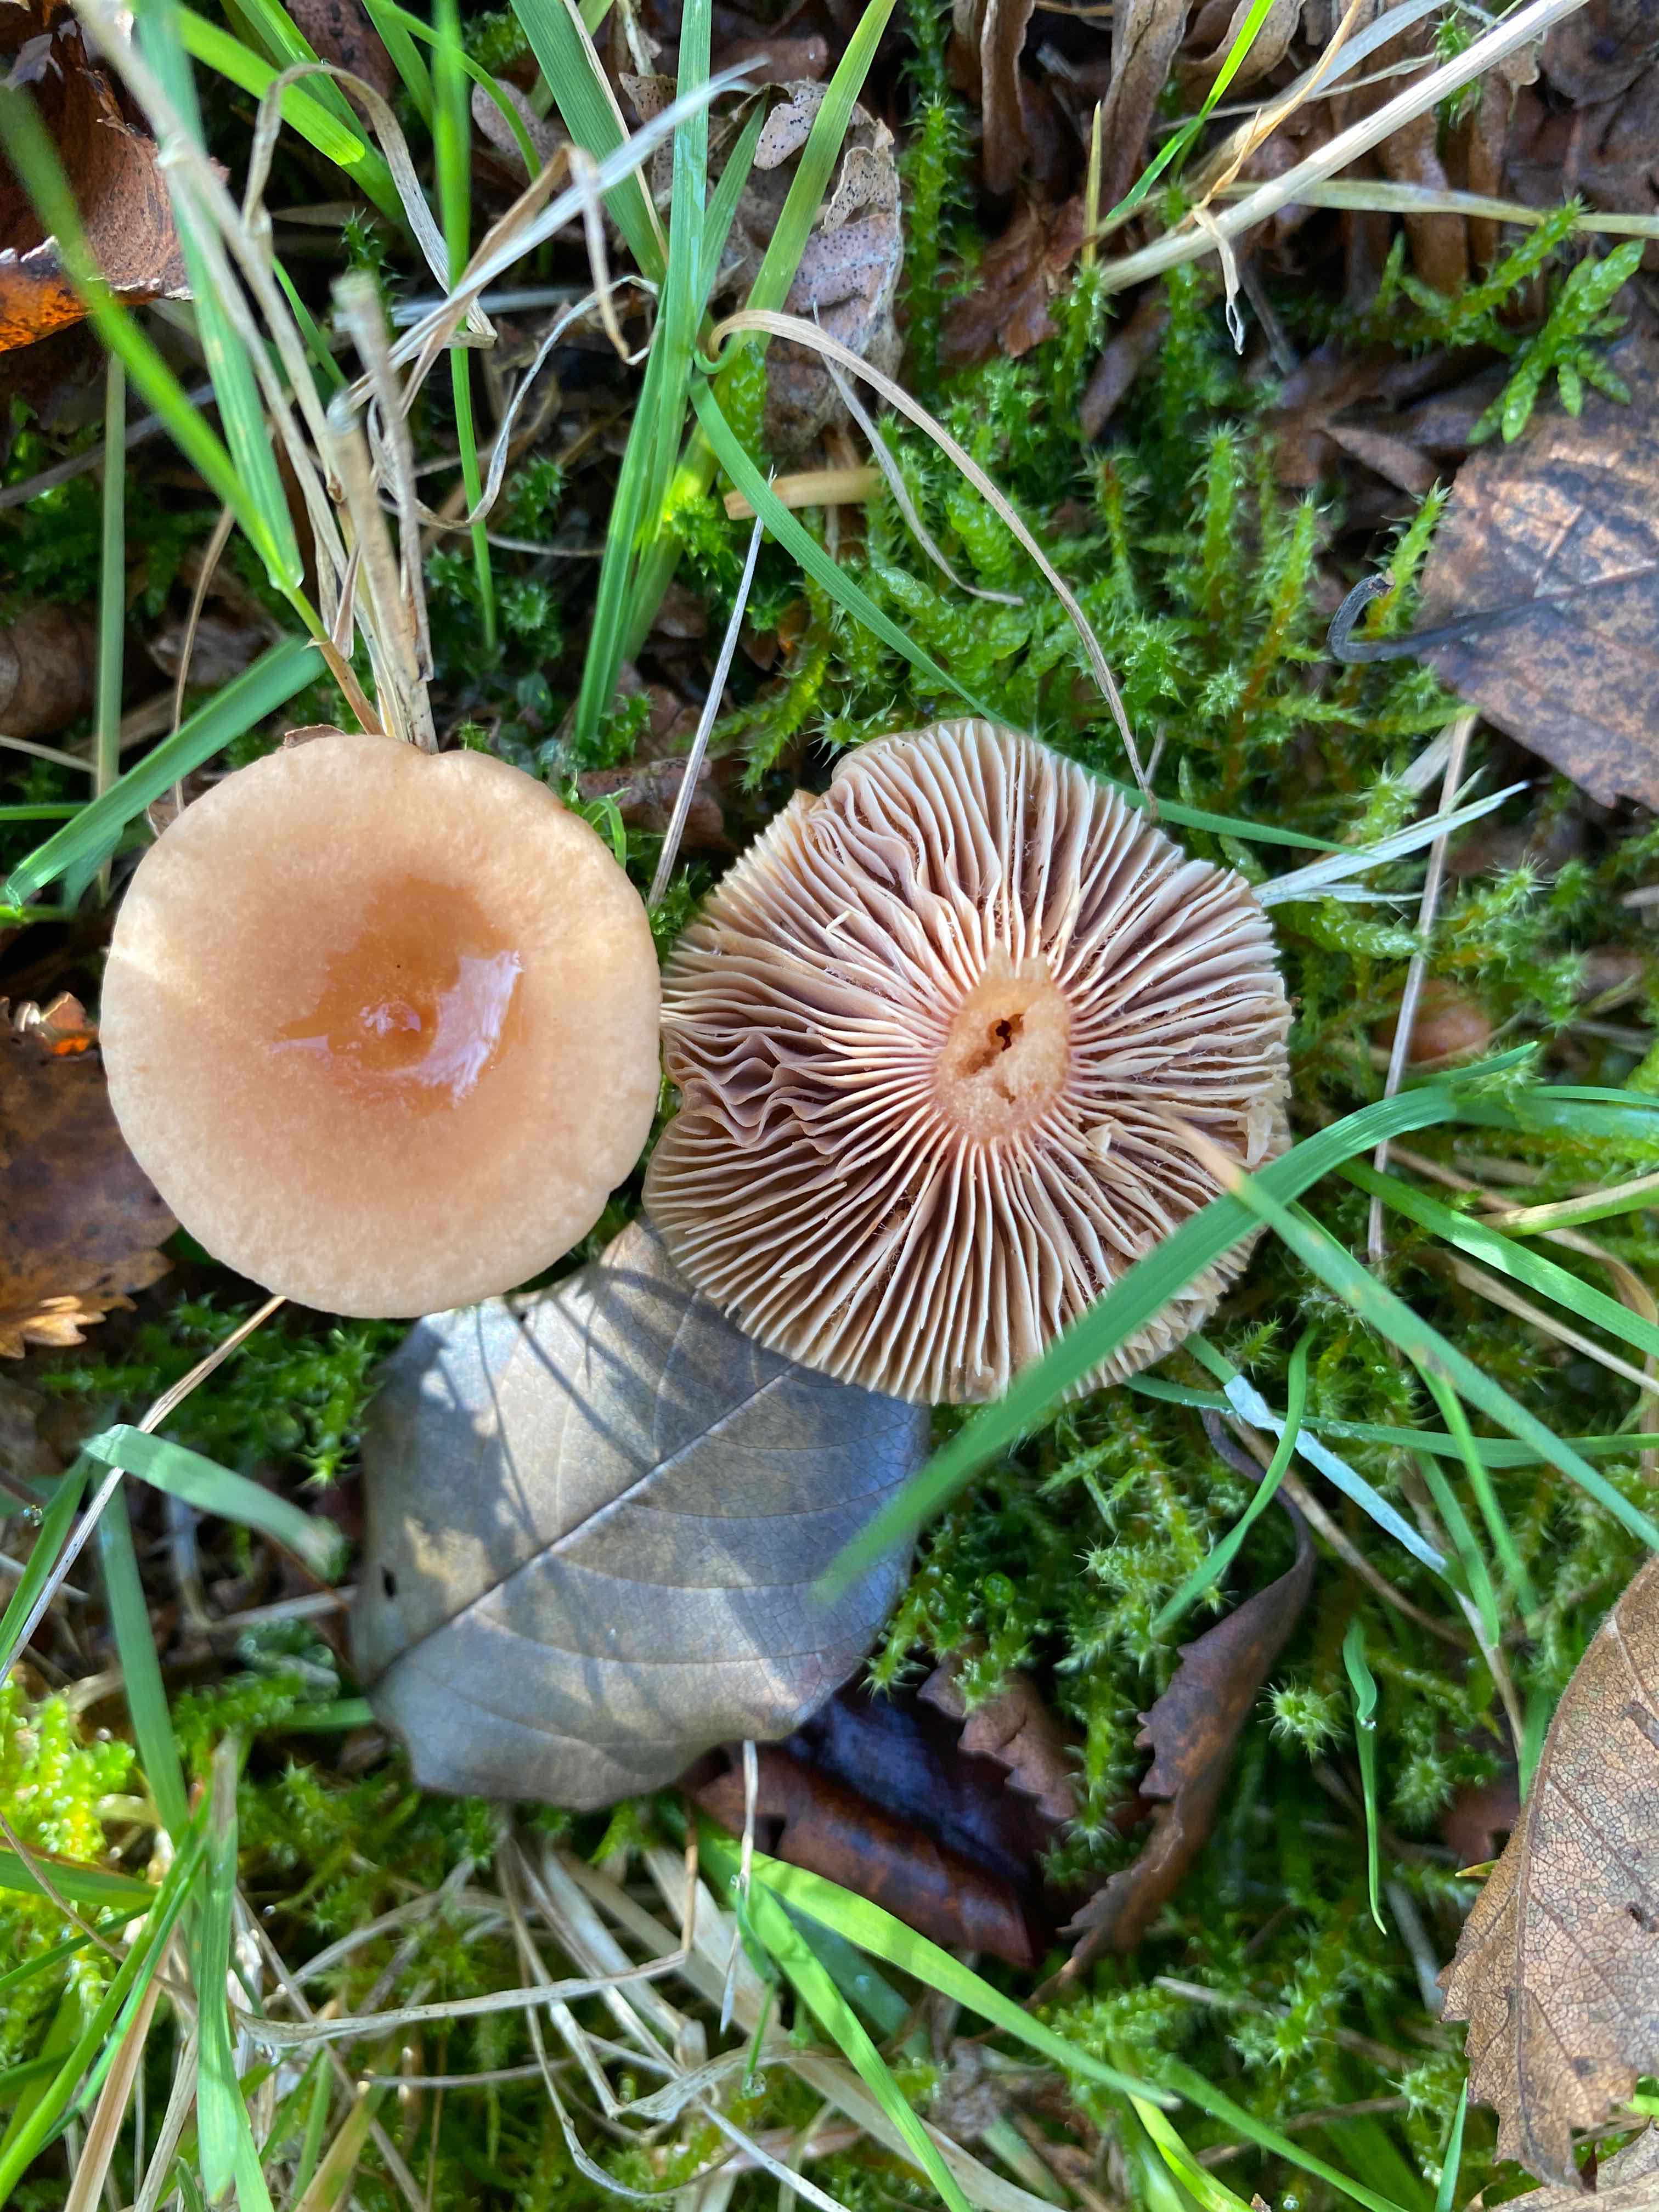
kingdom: Fungi
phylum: Basidiomycota
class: Agaricomycetes
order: Russulales
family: Russulaceae
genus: Lactarius
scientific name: Lactarius tabidus
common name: rynket mælkehat
